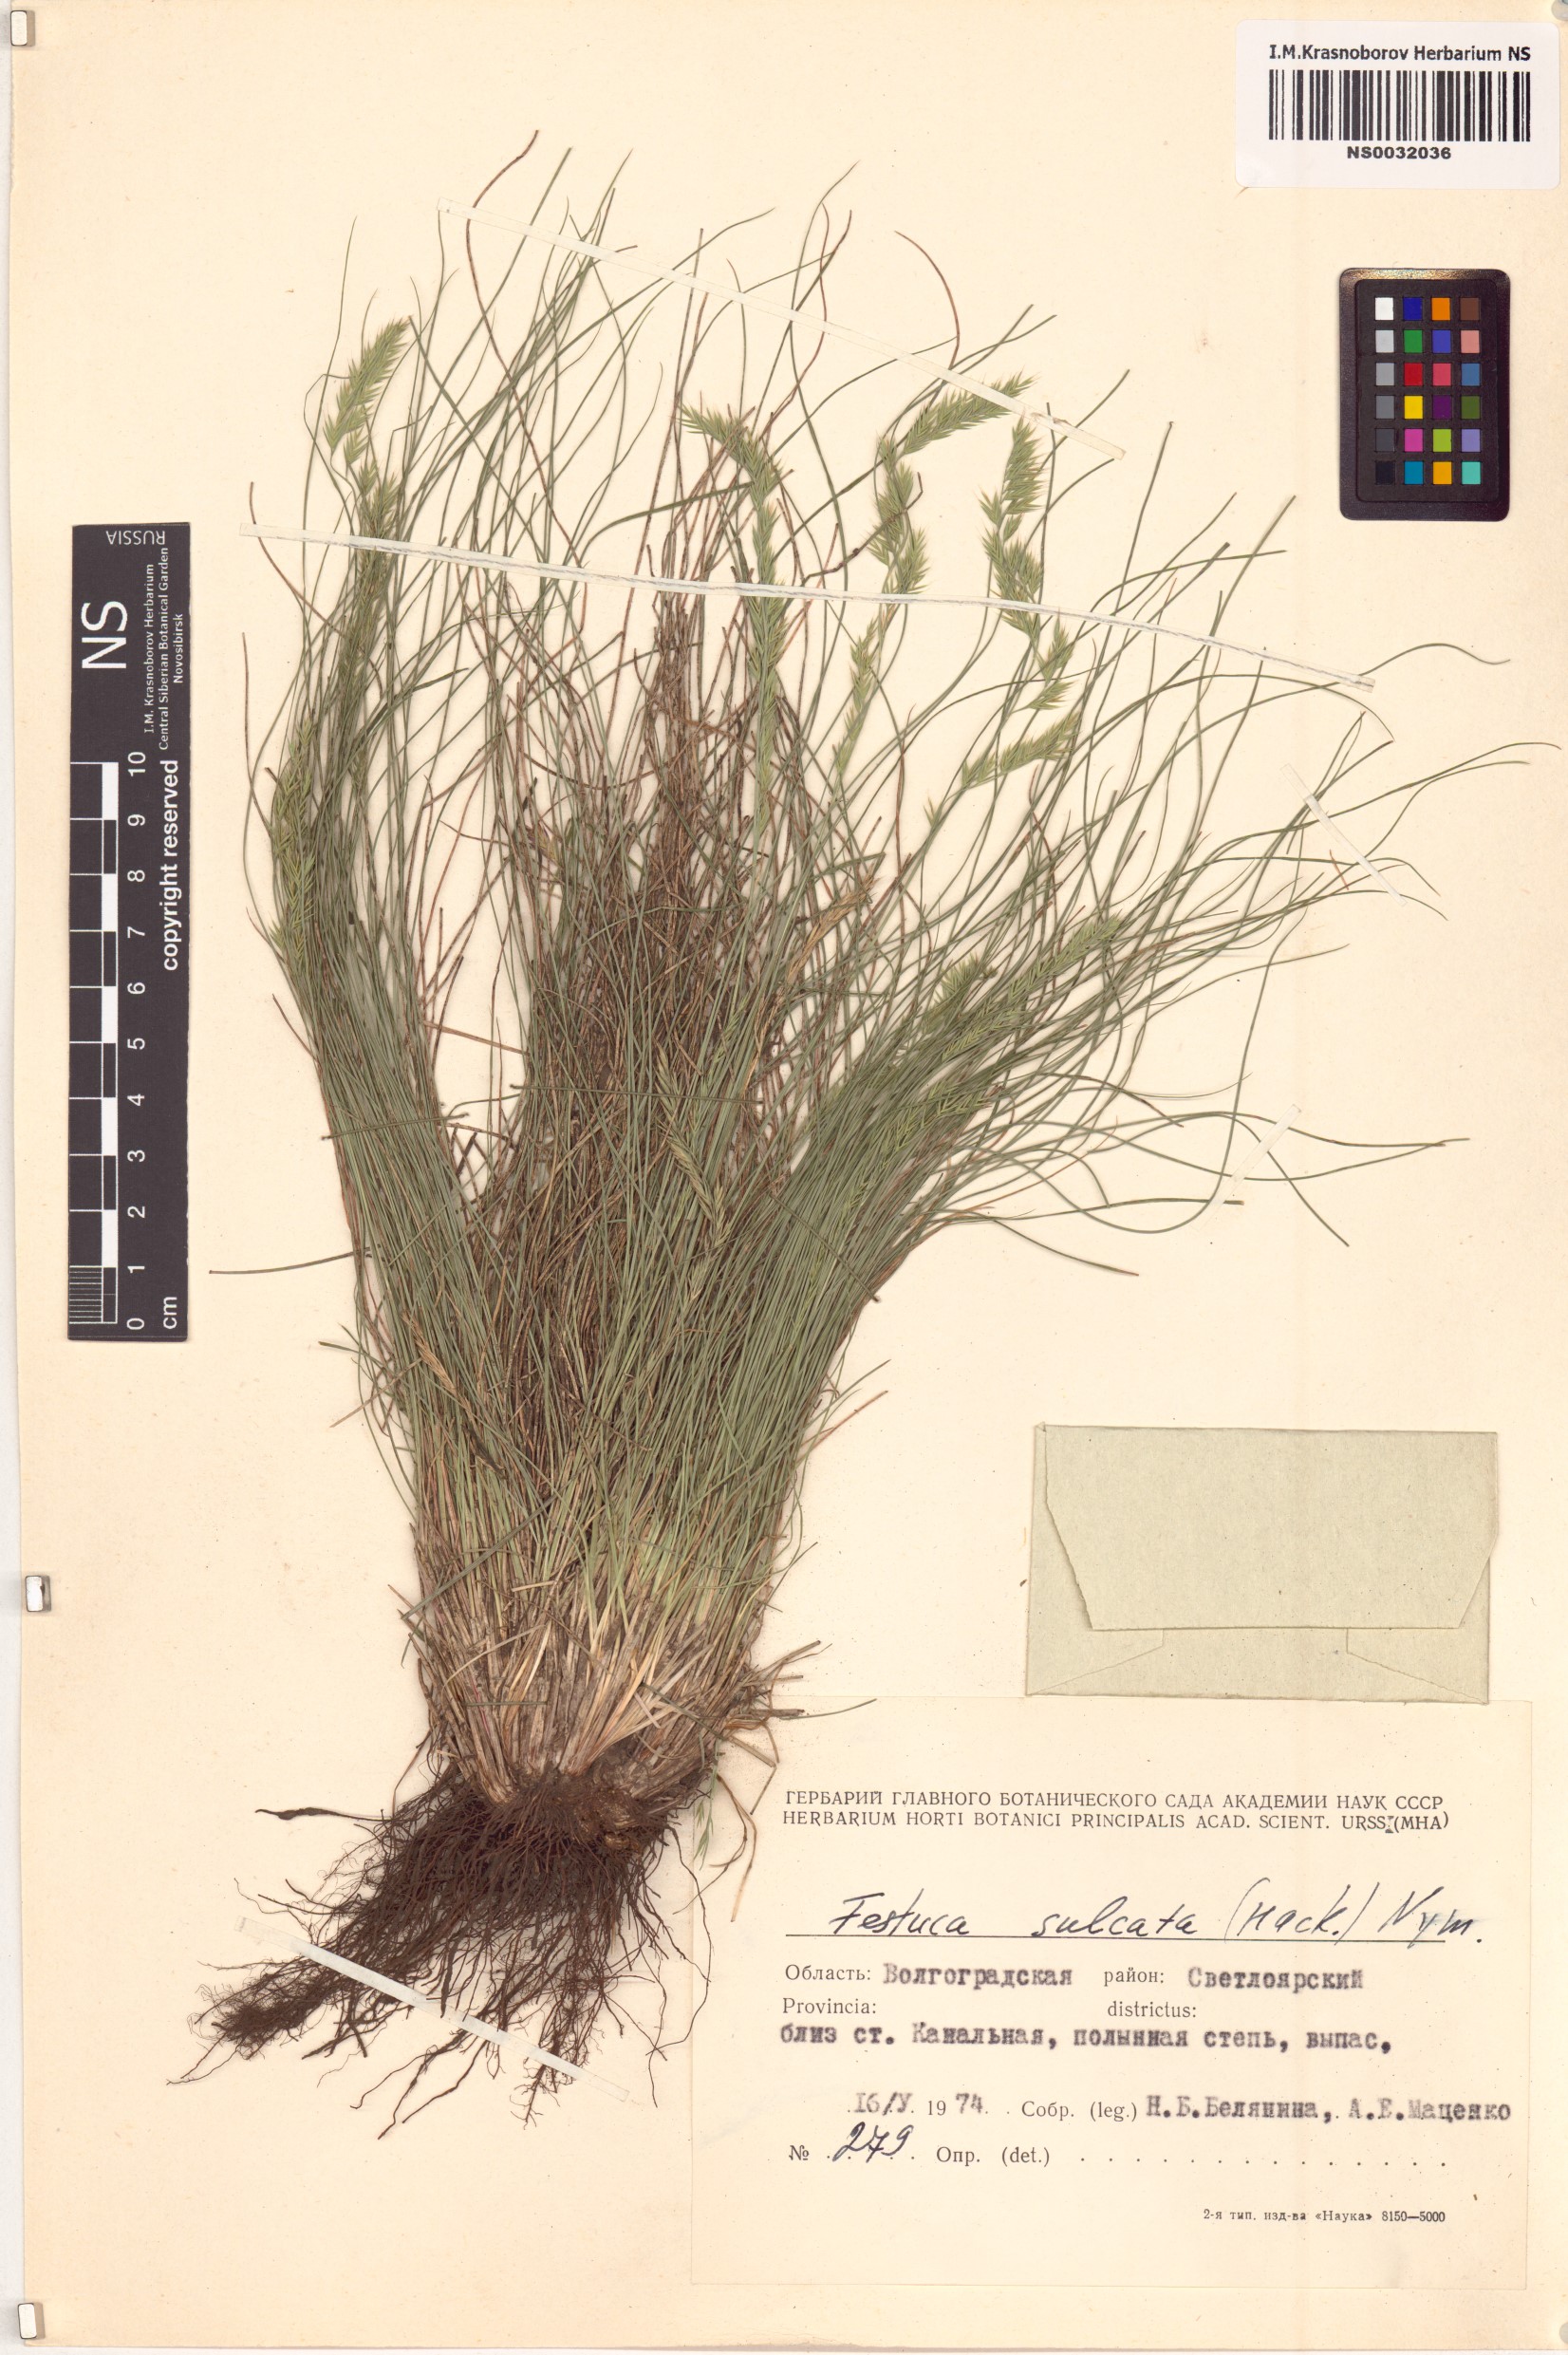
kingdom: Plantae
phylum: Tracheophyta
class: Liliopsida
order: Poales
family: Poaceae
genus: Festuca
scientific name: Festuca rupicola
